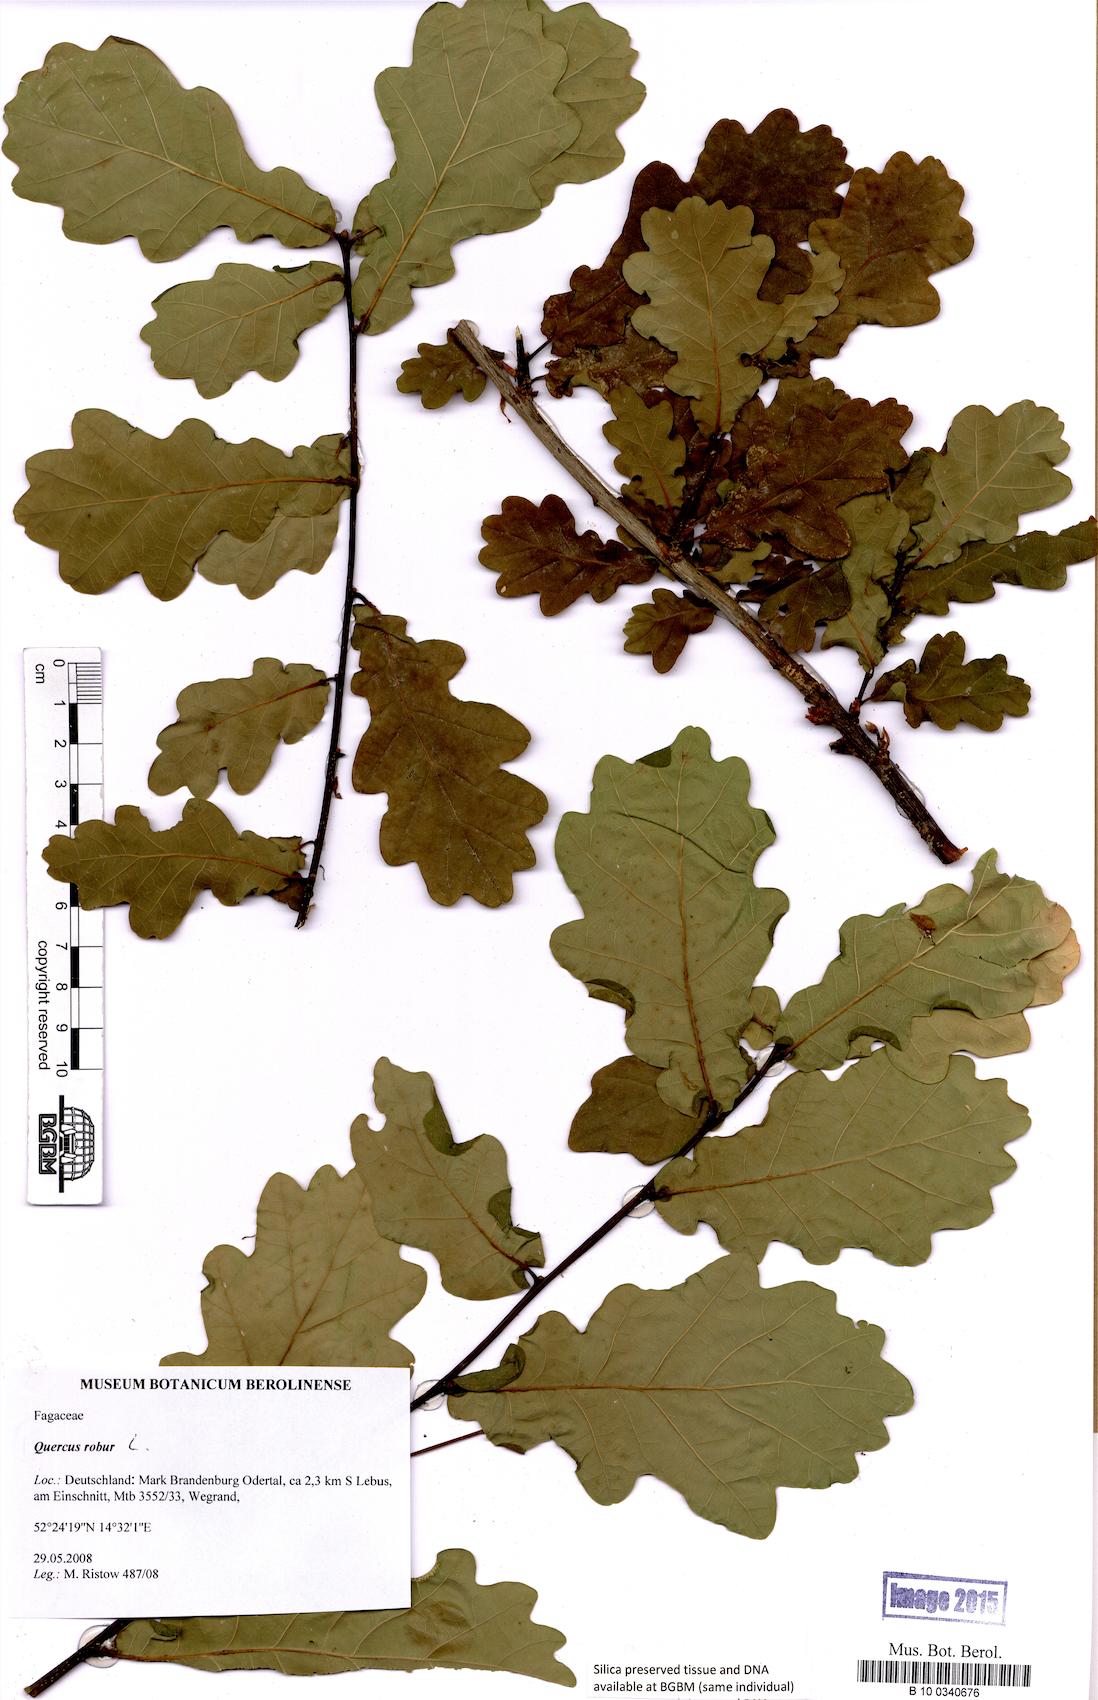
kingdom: Plantae
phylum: Tracheophyta
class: Magnoliopsida
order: Fagales
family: Fagaceae
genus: Quercus
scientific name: Quercus robur
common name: Pedunculate oak
